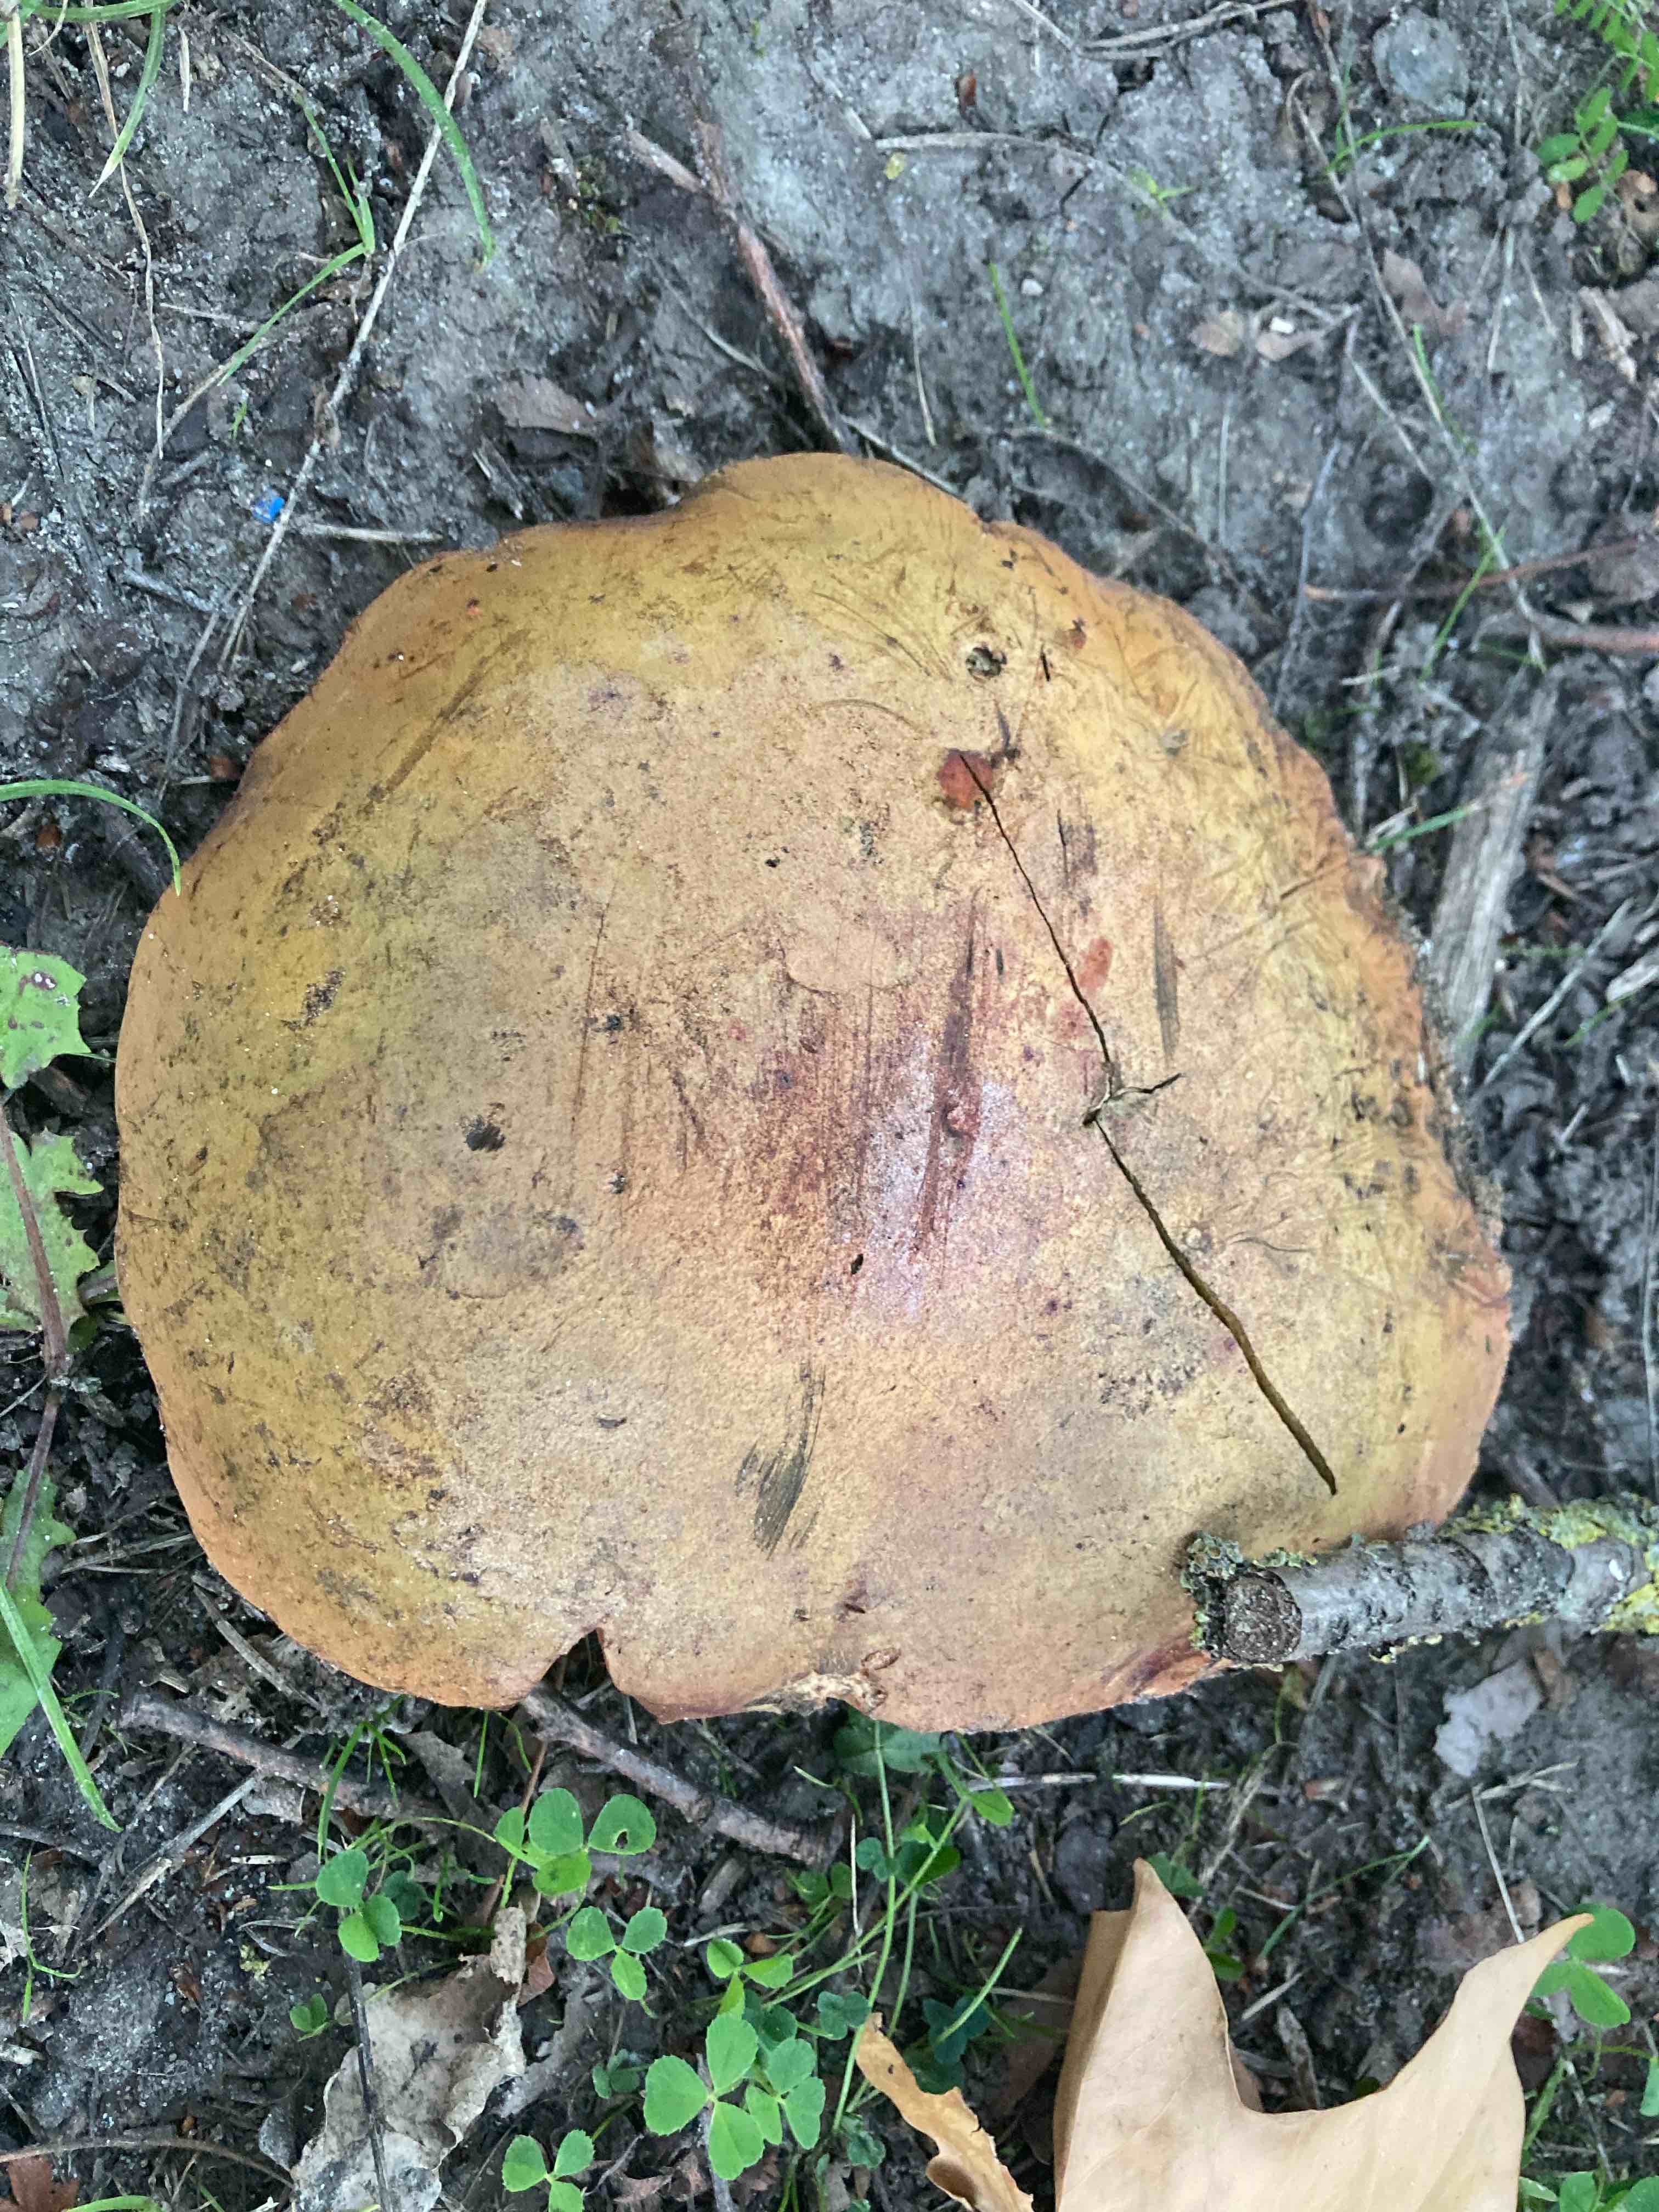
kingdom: Fungi
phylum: Basidiomycota
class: Agaricomycetes
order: Boletales
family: Boletaceae
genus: Suillellus
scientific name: Suillellus luridus
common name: netstokket indigorørhat
